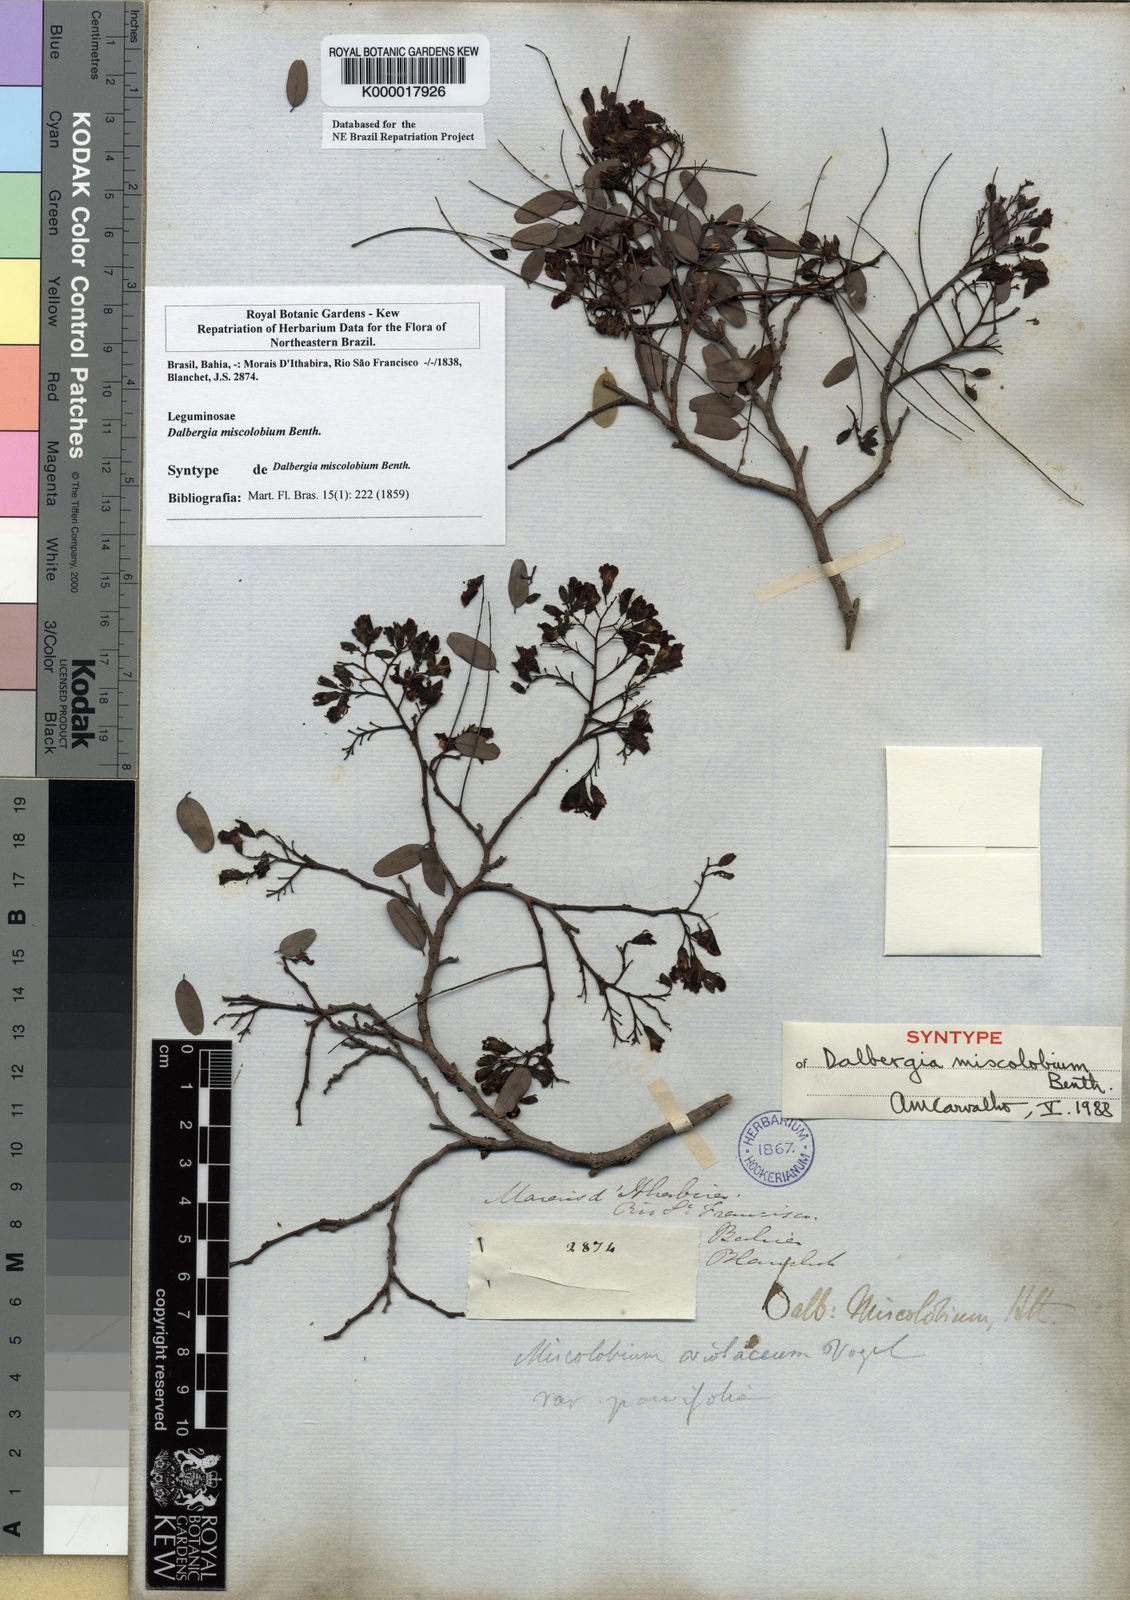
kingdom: Plantae
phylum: Tracheophyta
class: Magnoliopsida
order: Fabales
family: Fabaceae
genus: Dalbergia
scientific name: Dalbergia miscolobium
